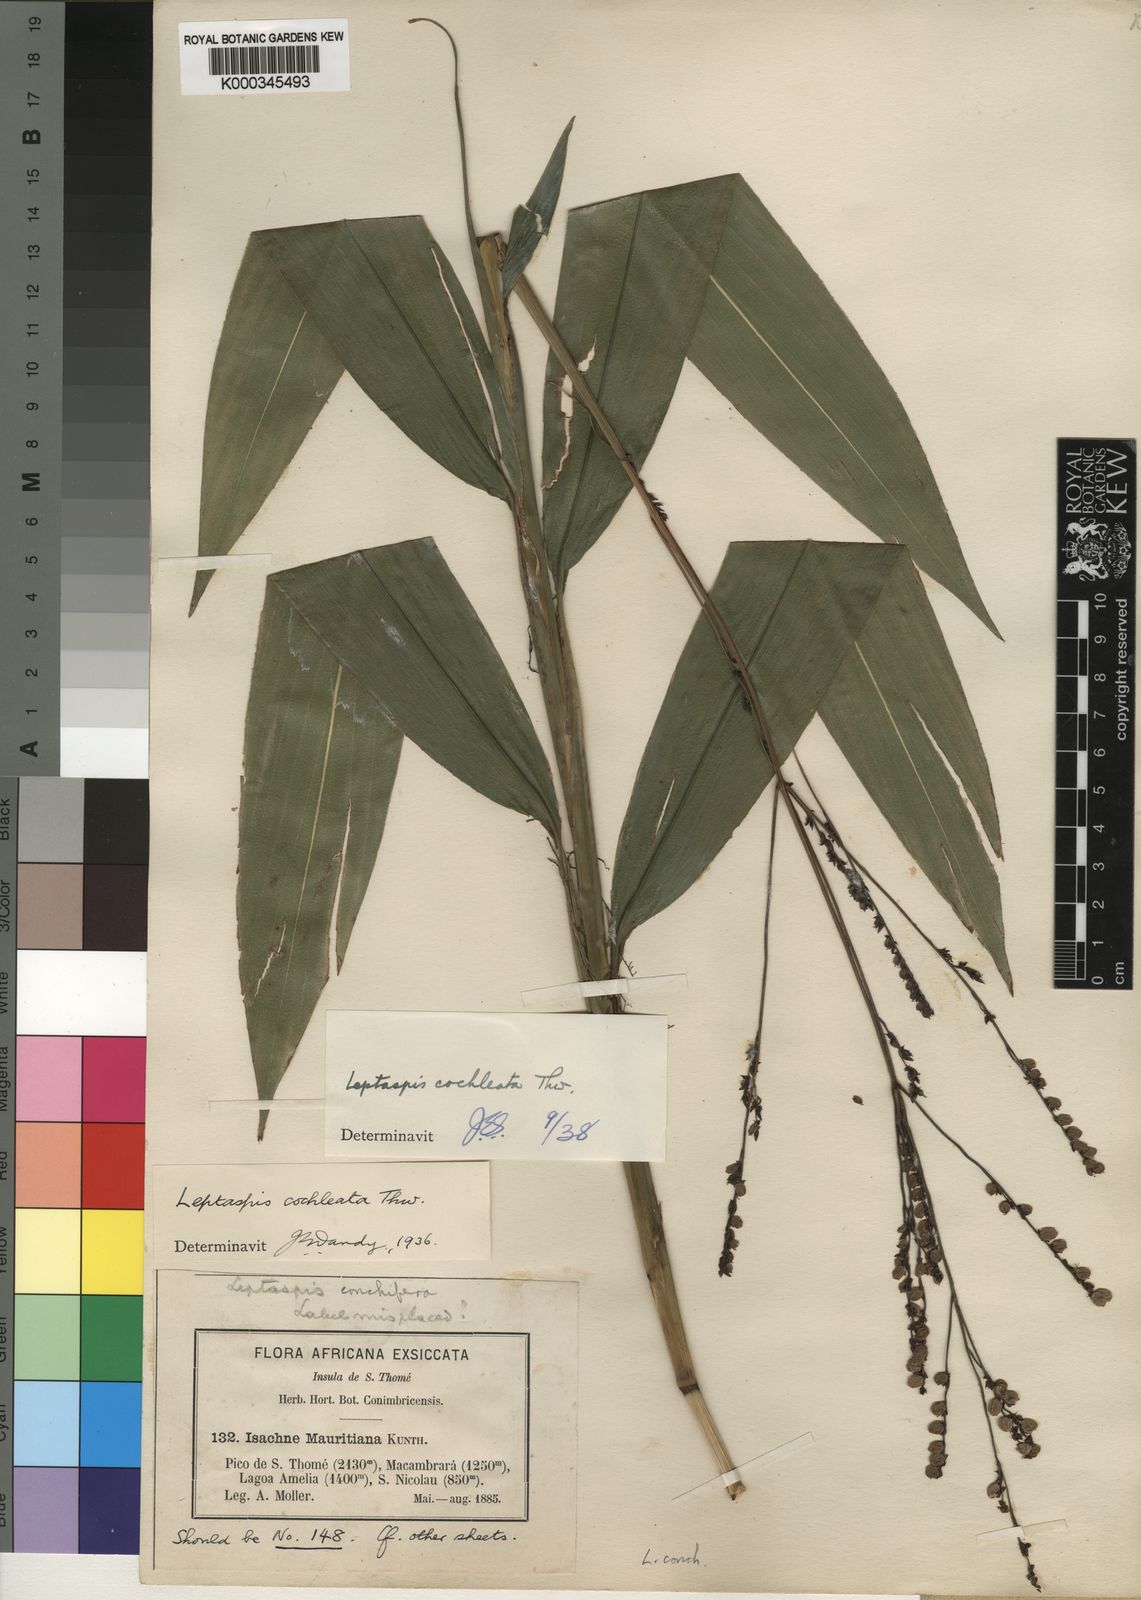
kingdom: Plantae
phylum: Tracheophyta
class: Liliopsida
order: Poales
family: Poaceae
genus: Leptaspis
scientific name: Leptaspis zeylanica
